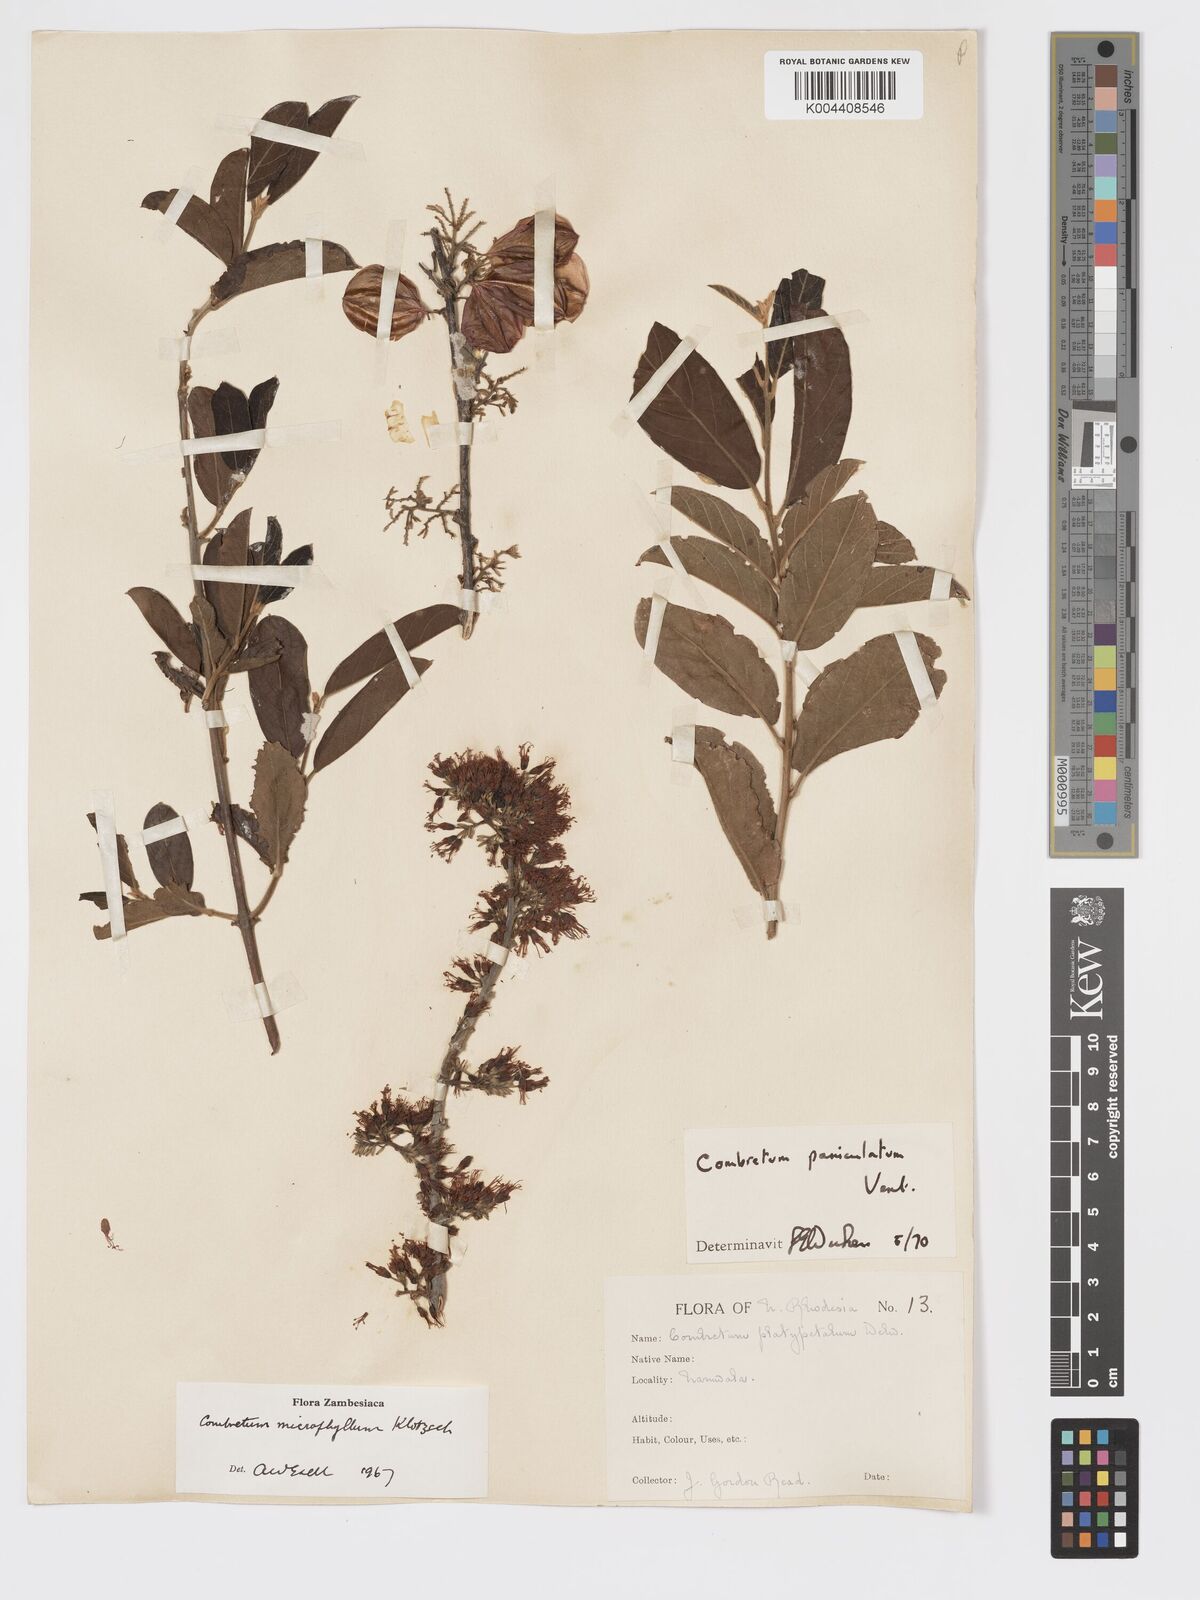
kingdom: Plantae
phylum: Tracheophyta
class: Magnoliopsida
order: Myrtales
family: Combretaceae
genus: Combretum
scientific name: Combretum paniculatum
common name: Fire vine
